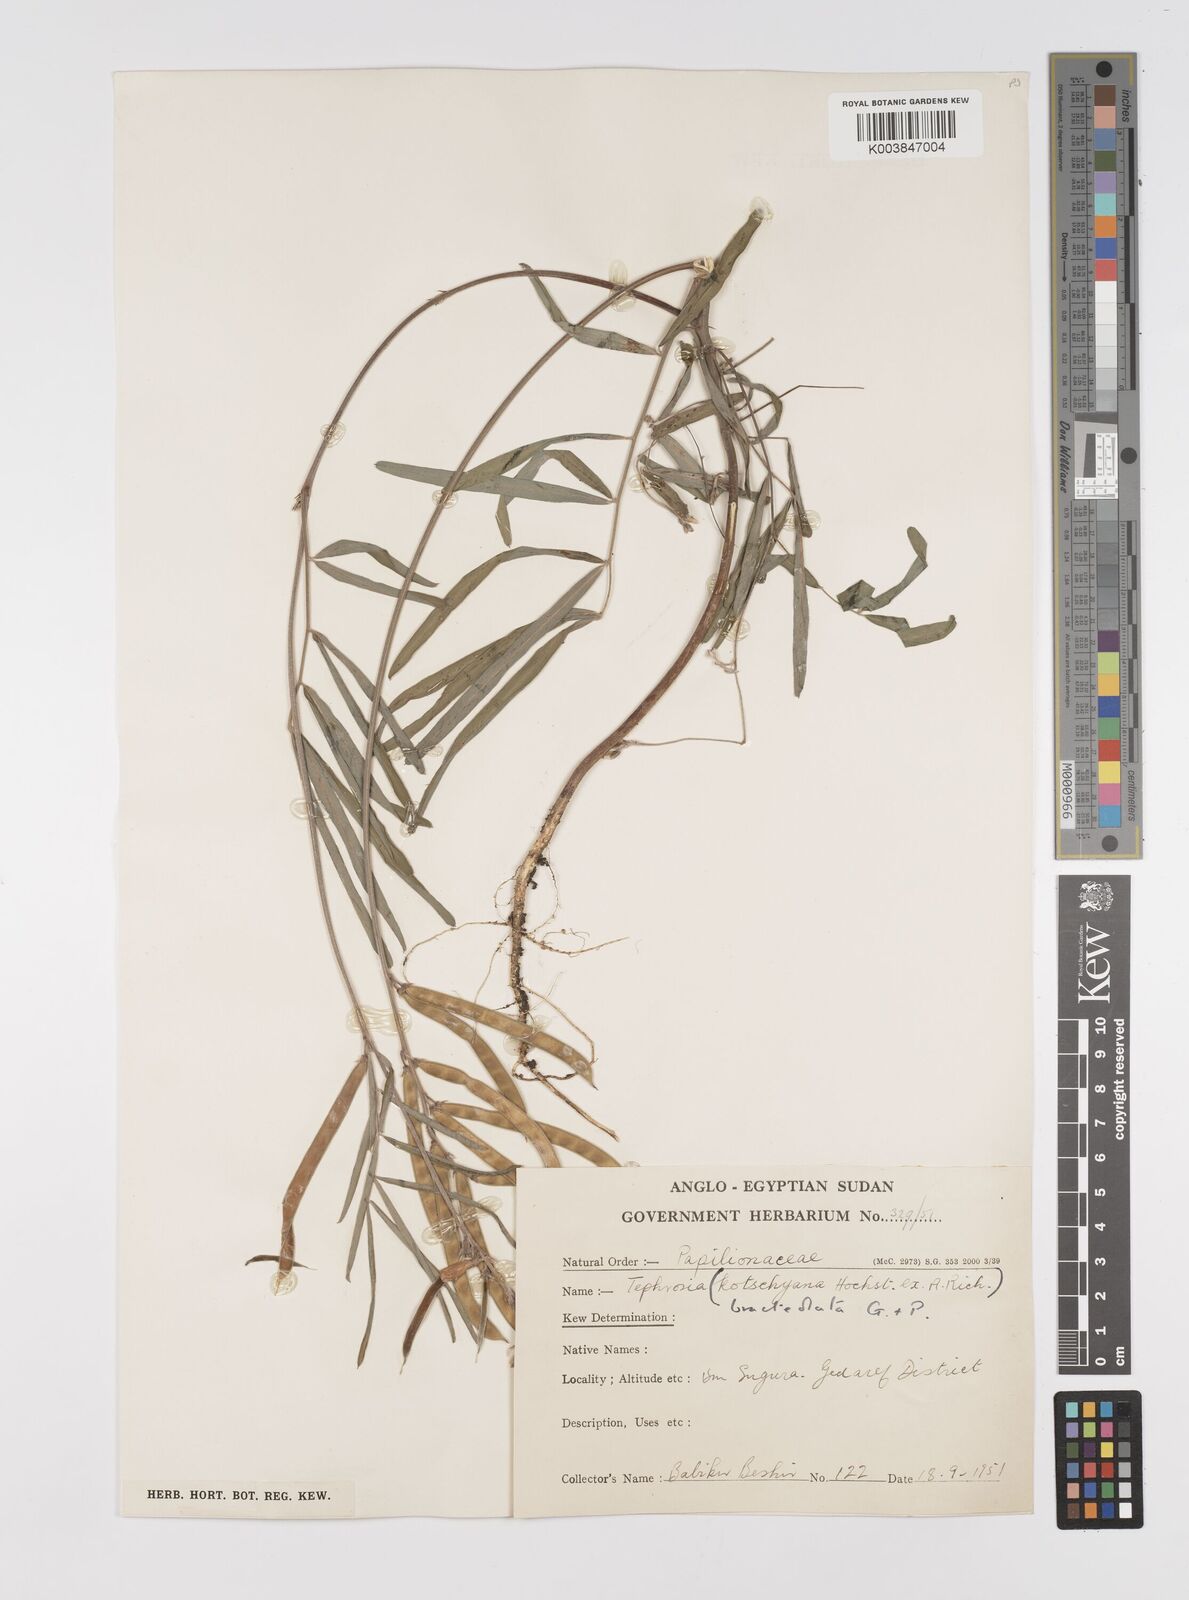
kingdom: Plantae
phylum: Tracheophyta
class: Magnoliopsida
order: Fabales
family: Fabaceae
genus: Tephrosia
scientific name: Tephrosia bracteolata
